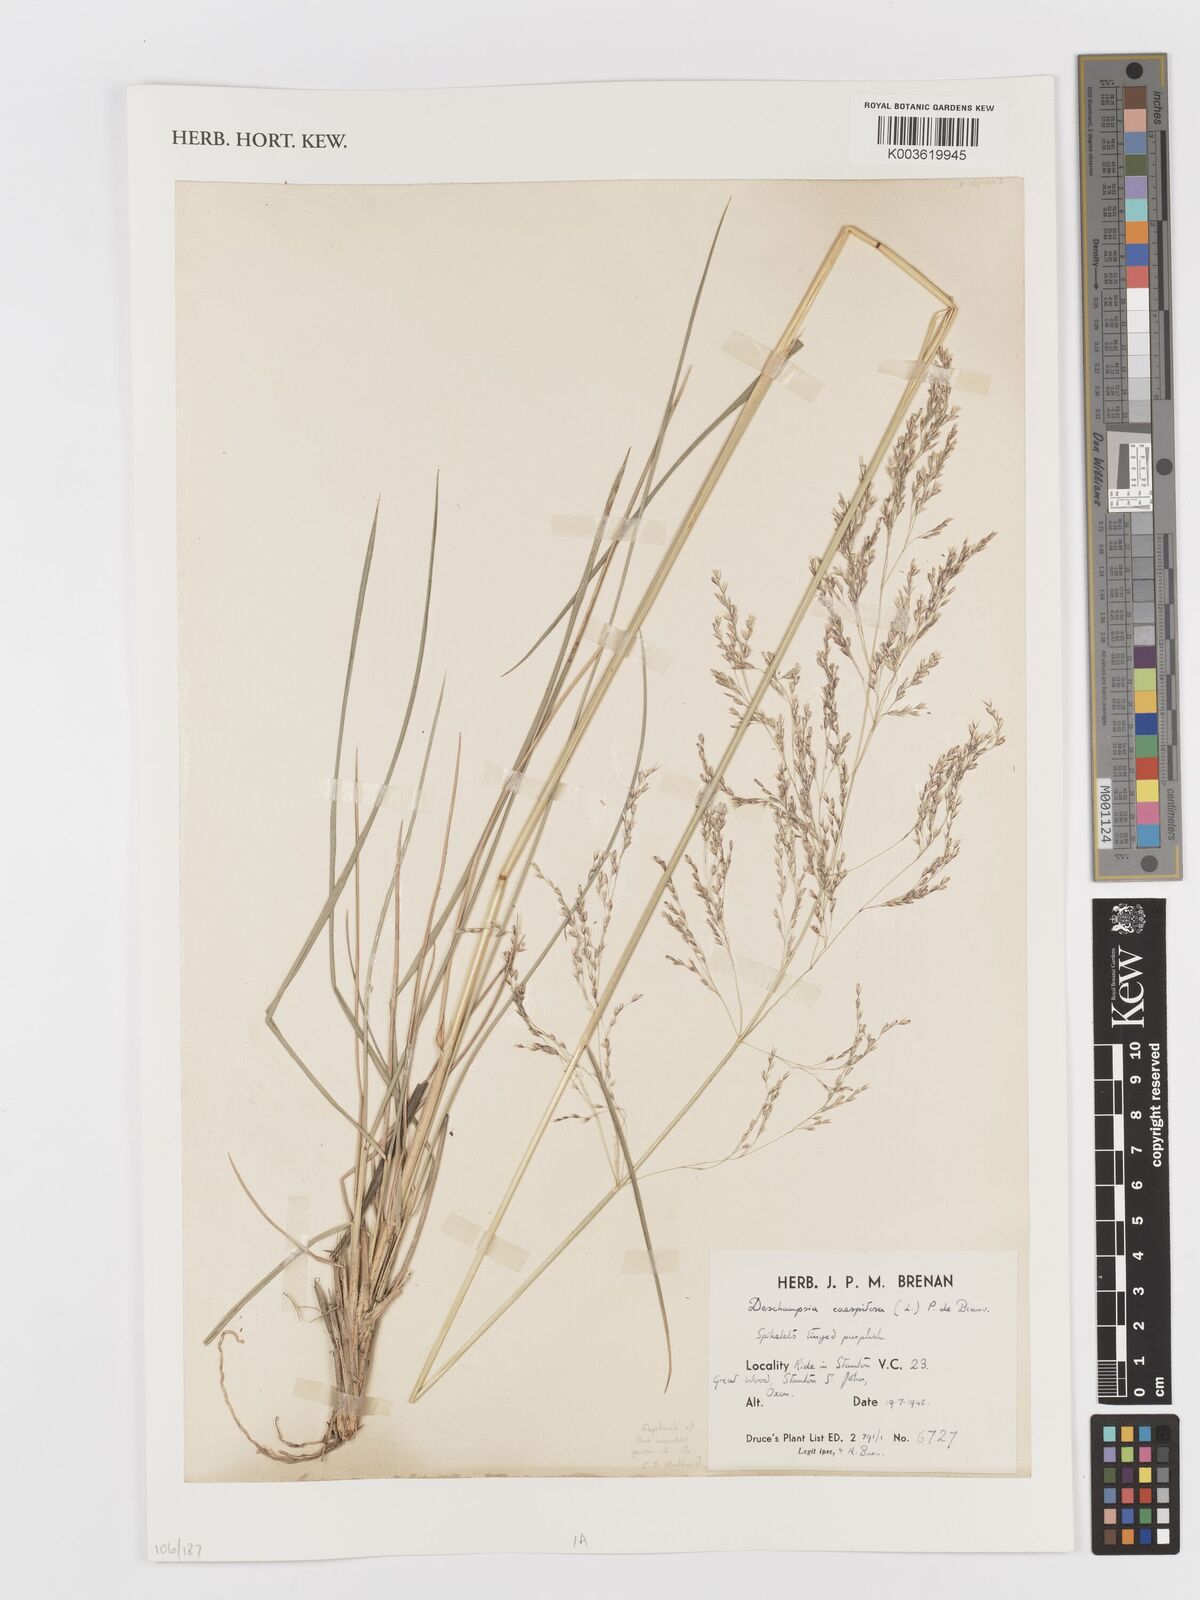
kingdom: Plantae
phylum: Tracheophyta
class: Liliopsida
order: Poales
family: Poaceae
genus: Deschampsia
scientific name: Deschampsia
